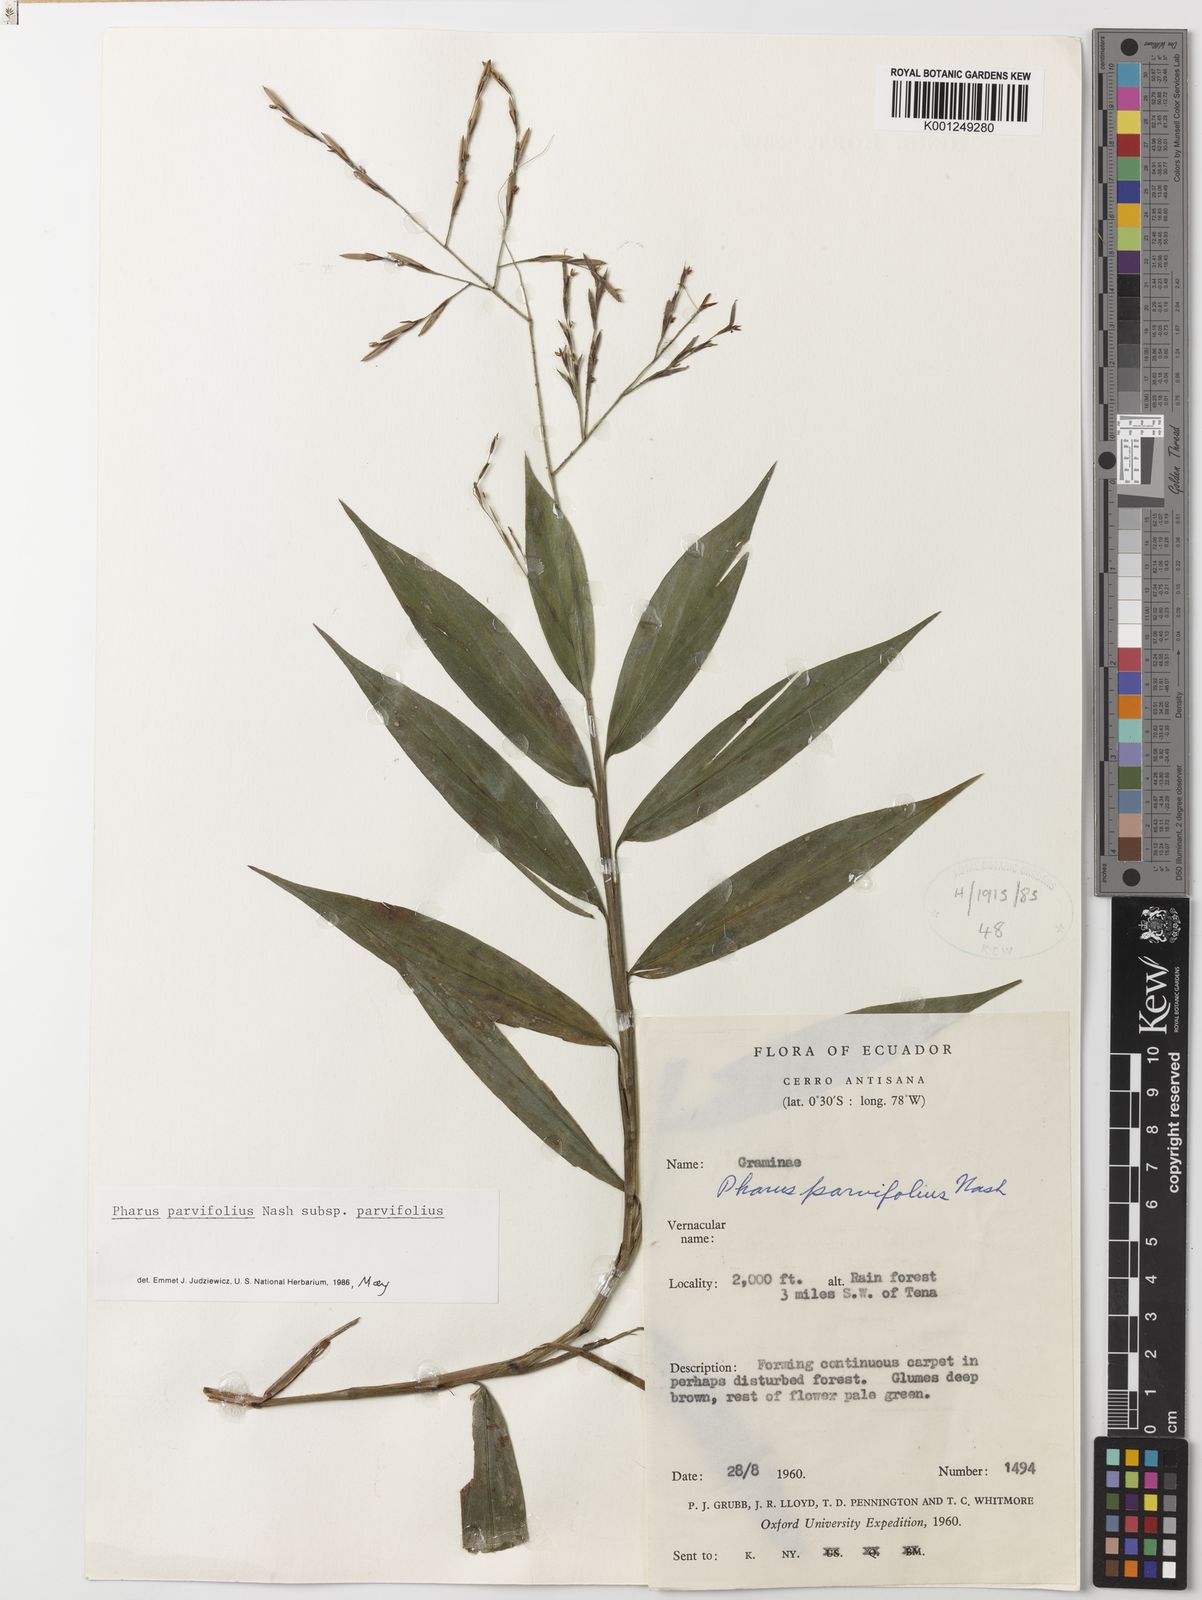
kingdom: Plantae
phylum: Tracheophyta
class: Liliopsida
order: Poales
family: Poaceae
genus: Pharus
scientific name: Pharus parvifolius
